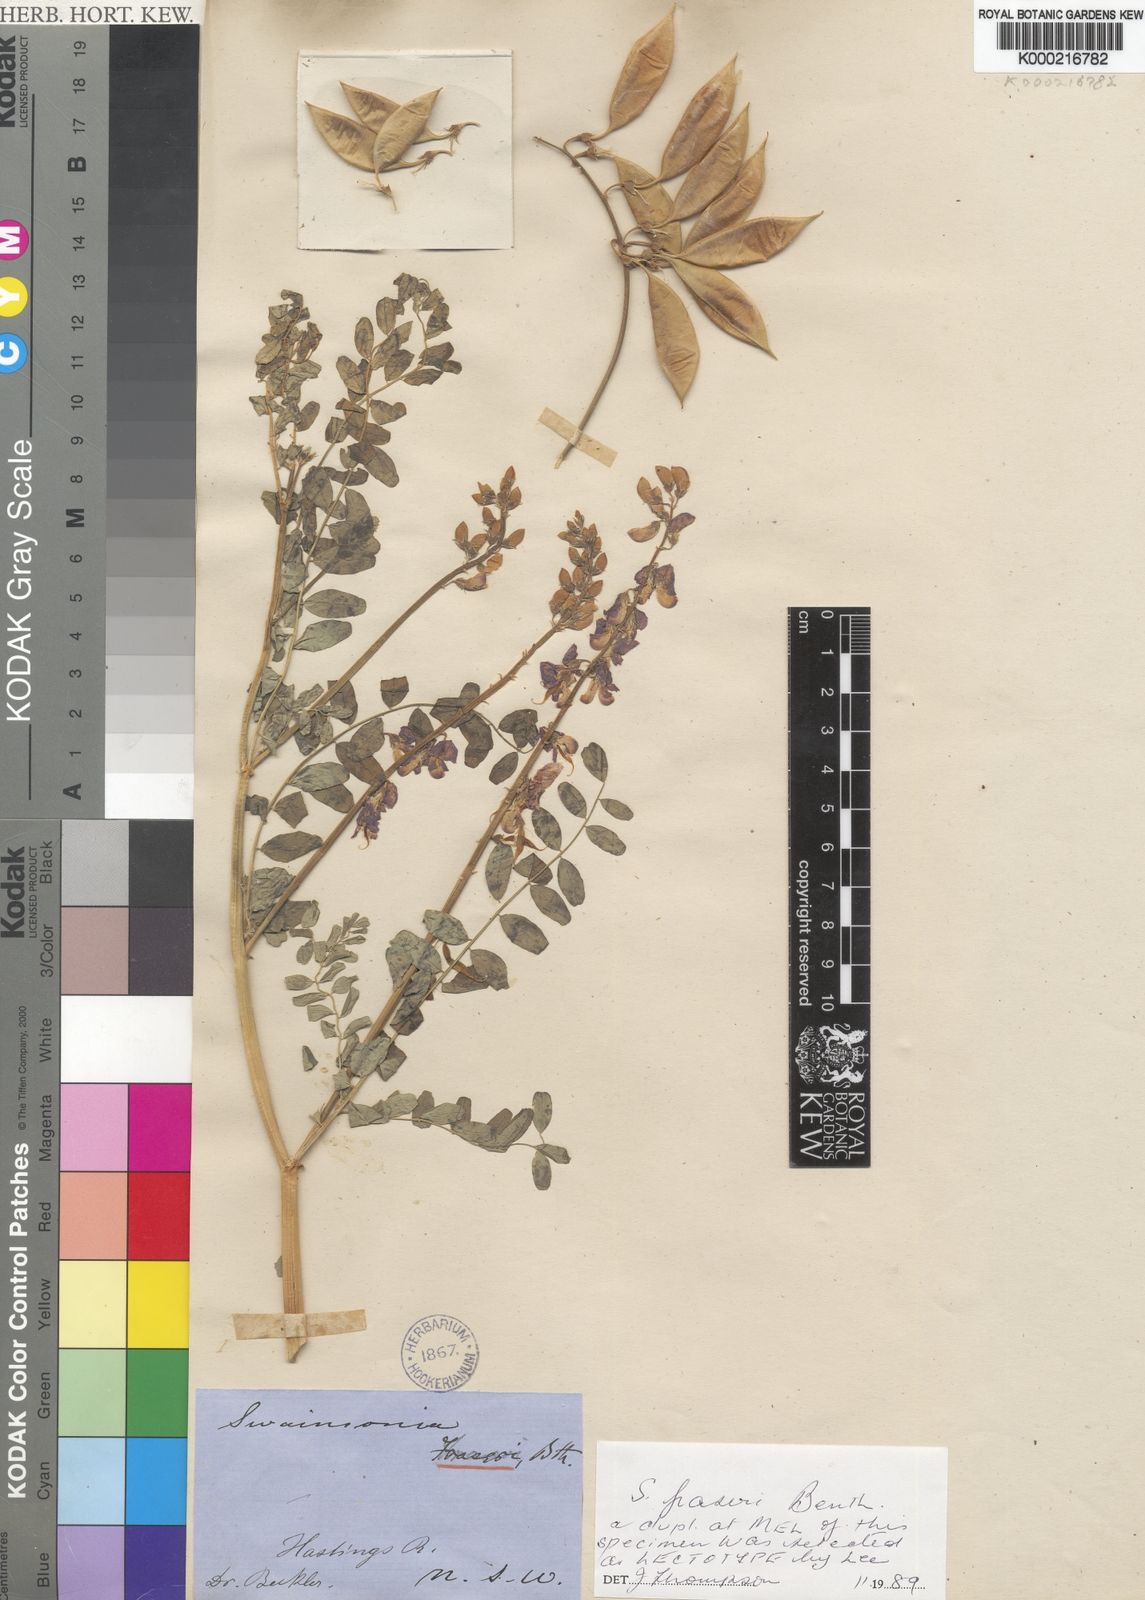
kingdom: Plantae
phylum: Tracheophyta
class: Magnoliopsida
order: Fabales
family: Fabaceae
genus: Swainsona
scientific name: Swainsona fraseri
